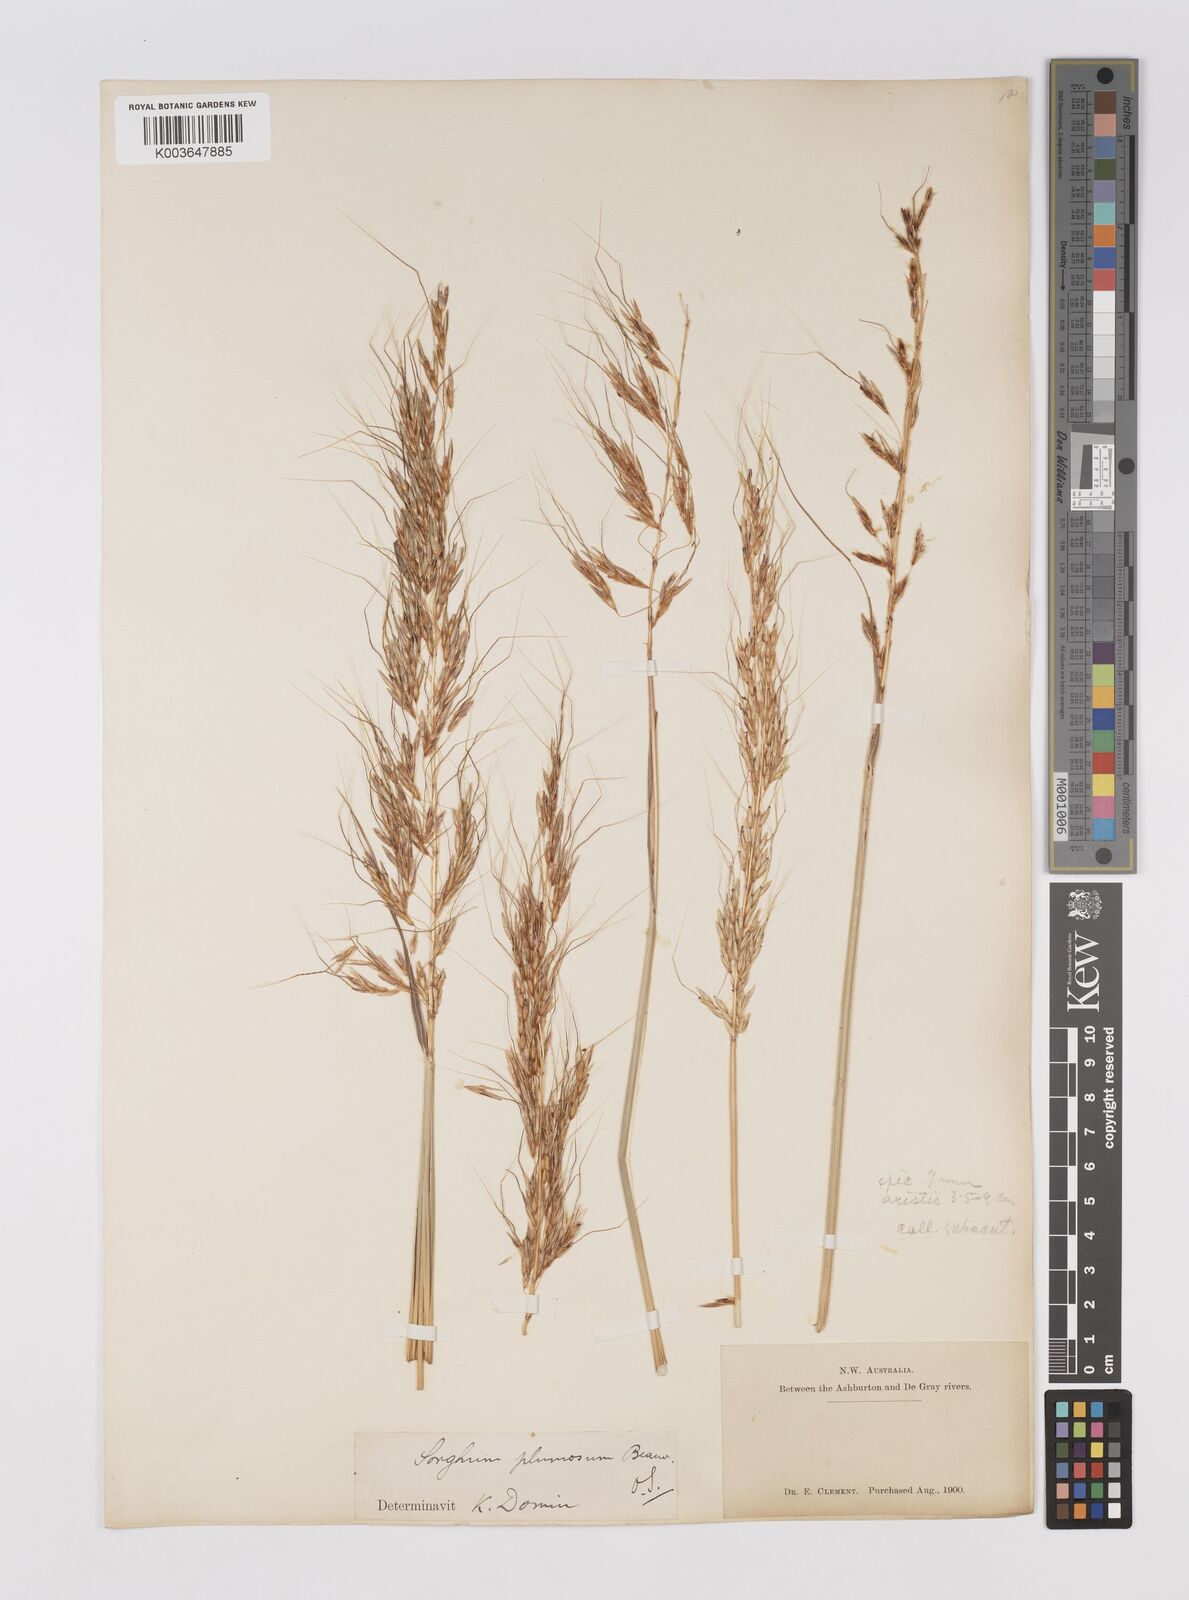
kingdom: Plantae
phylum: Tracheophyta
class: Liliopsida
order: Poales
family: Poaceae
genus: Sarga
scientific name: Sarga plumosa
